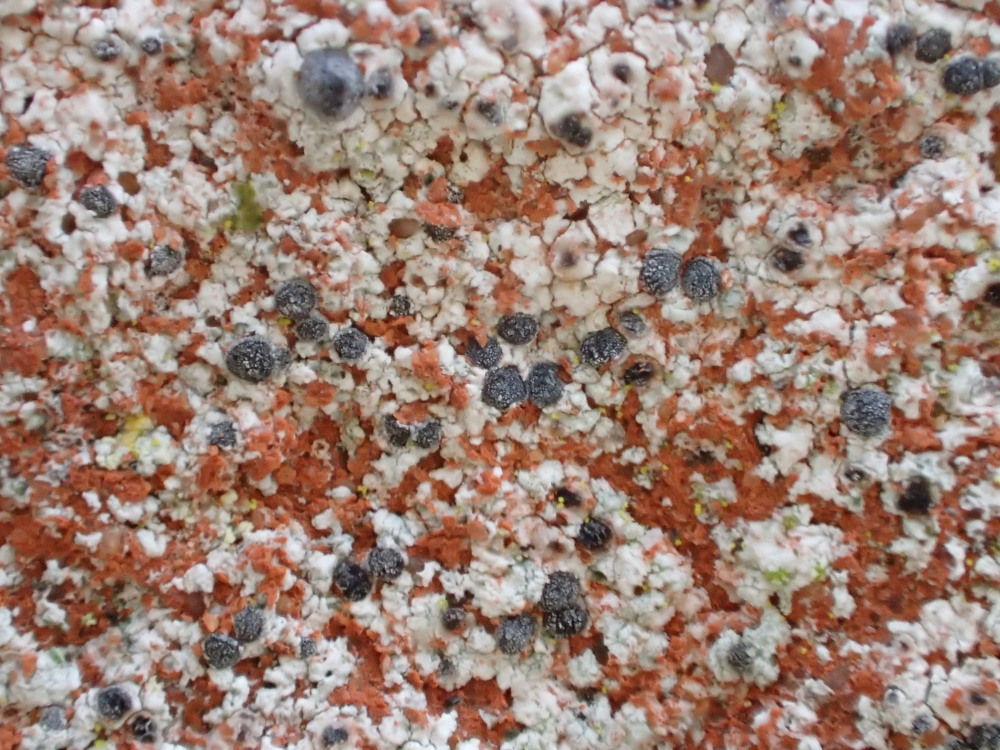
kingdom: Fungi
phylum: Ascomycota
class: Lecanoromycetes
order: Caliciales
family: Caliciaceae
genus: Diplotomma
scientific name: Diplotomma alboatrum
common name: sorthvid sortskivelav
